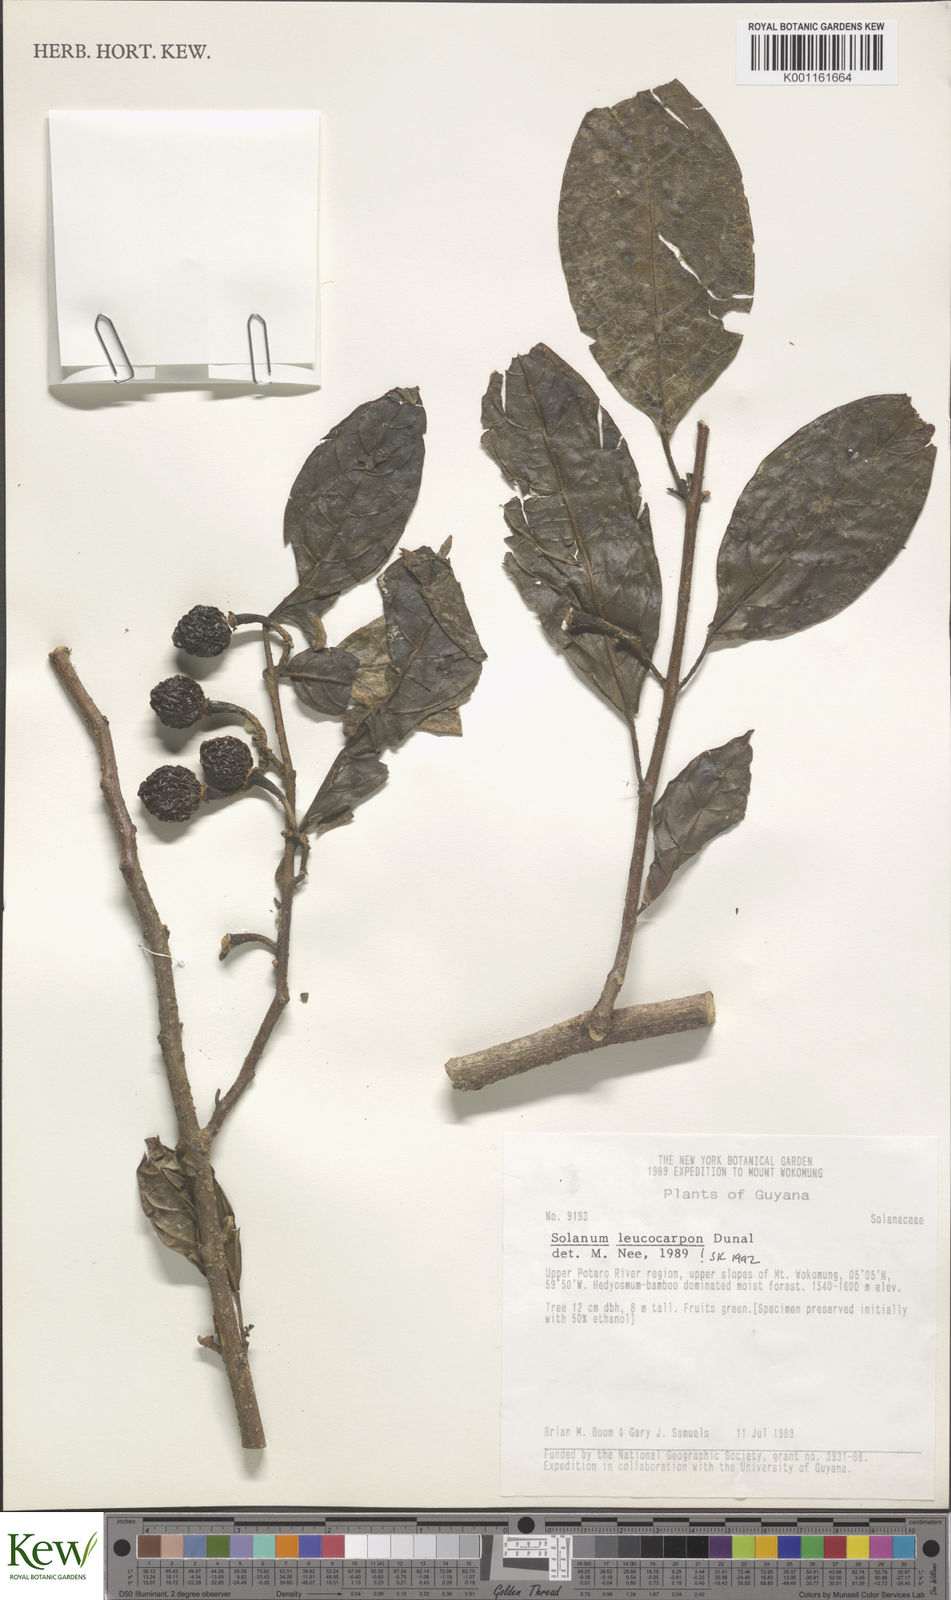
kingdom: Plantae
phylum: Tracheophyta
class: Magnoliopsida
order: Solanales
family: Solanaceae
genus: Solanum
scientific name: Solanum leucocarpon
